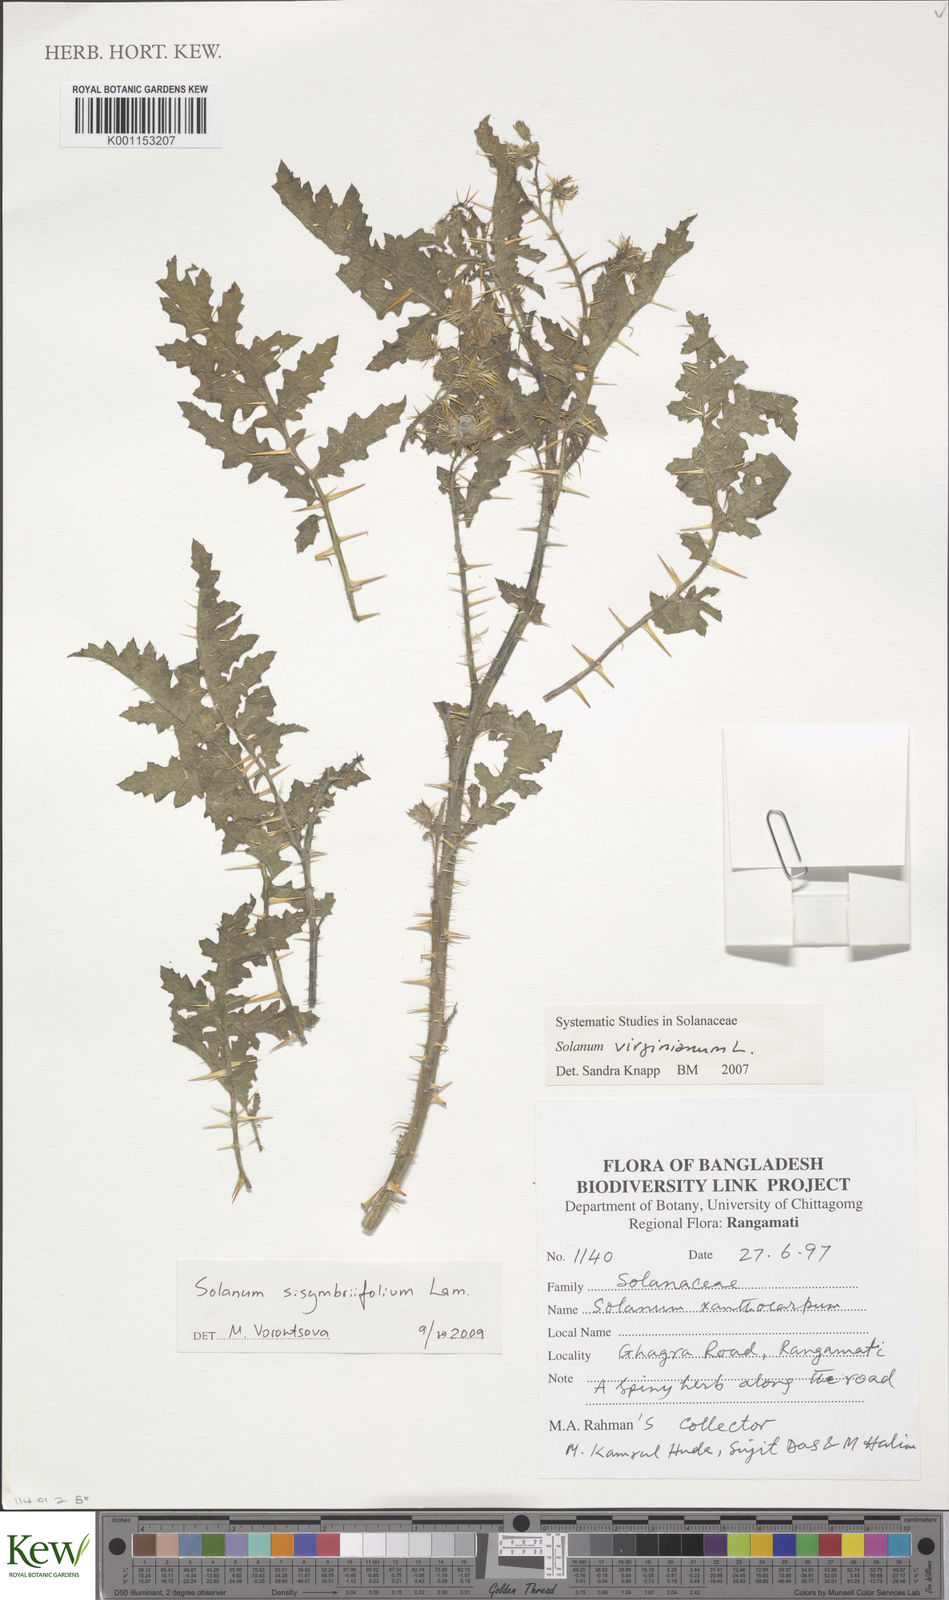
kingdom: Plantae
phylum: Tracheophyta
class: Magnoliopsida
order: Solanales
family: Solanaceae
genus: Solanum
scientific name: Solanum sisymbriifolium
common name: Red buffalo-bur
